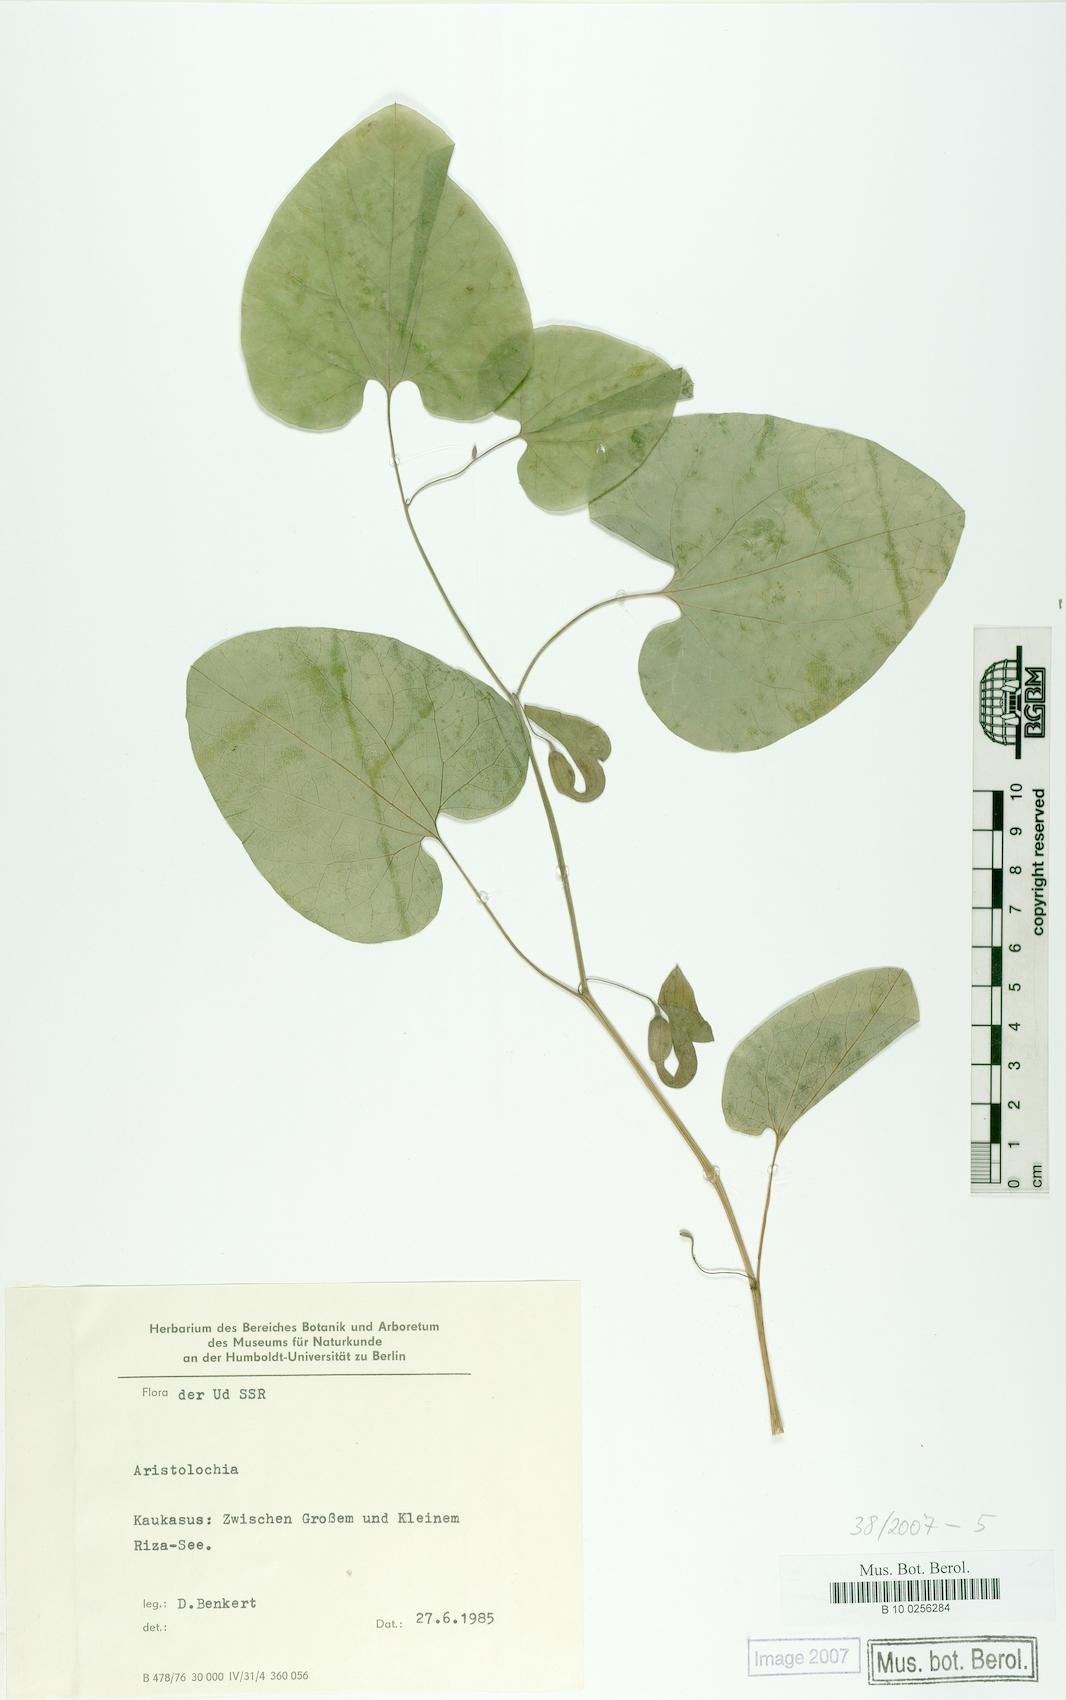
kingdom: Plantae
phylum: Tracheophyta
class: Magnoliopsida
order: Piperales
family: Aristolochiaceae
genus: Aristolochia
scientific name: Aristolochia iberica
